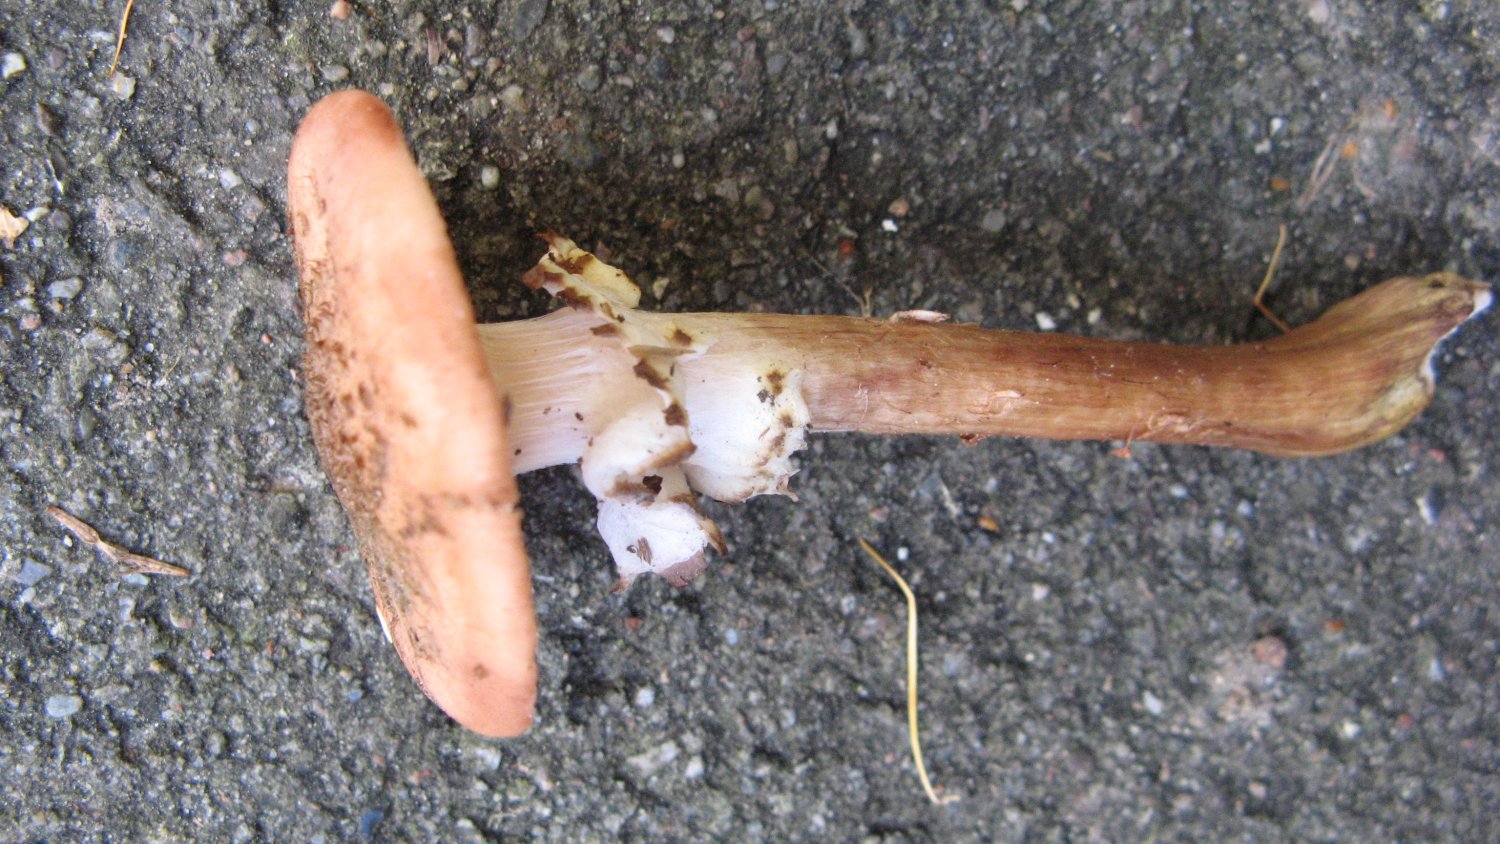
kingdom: Fungi
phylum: Basidiomycota
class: Agaricomycetes
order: Agaricales
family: Physalacriaceae
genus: Armillaria
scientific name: Armillaria ostoyae
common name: mørk honningsvamp
